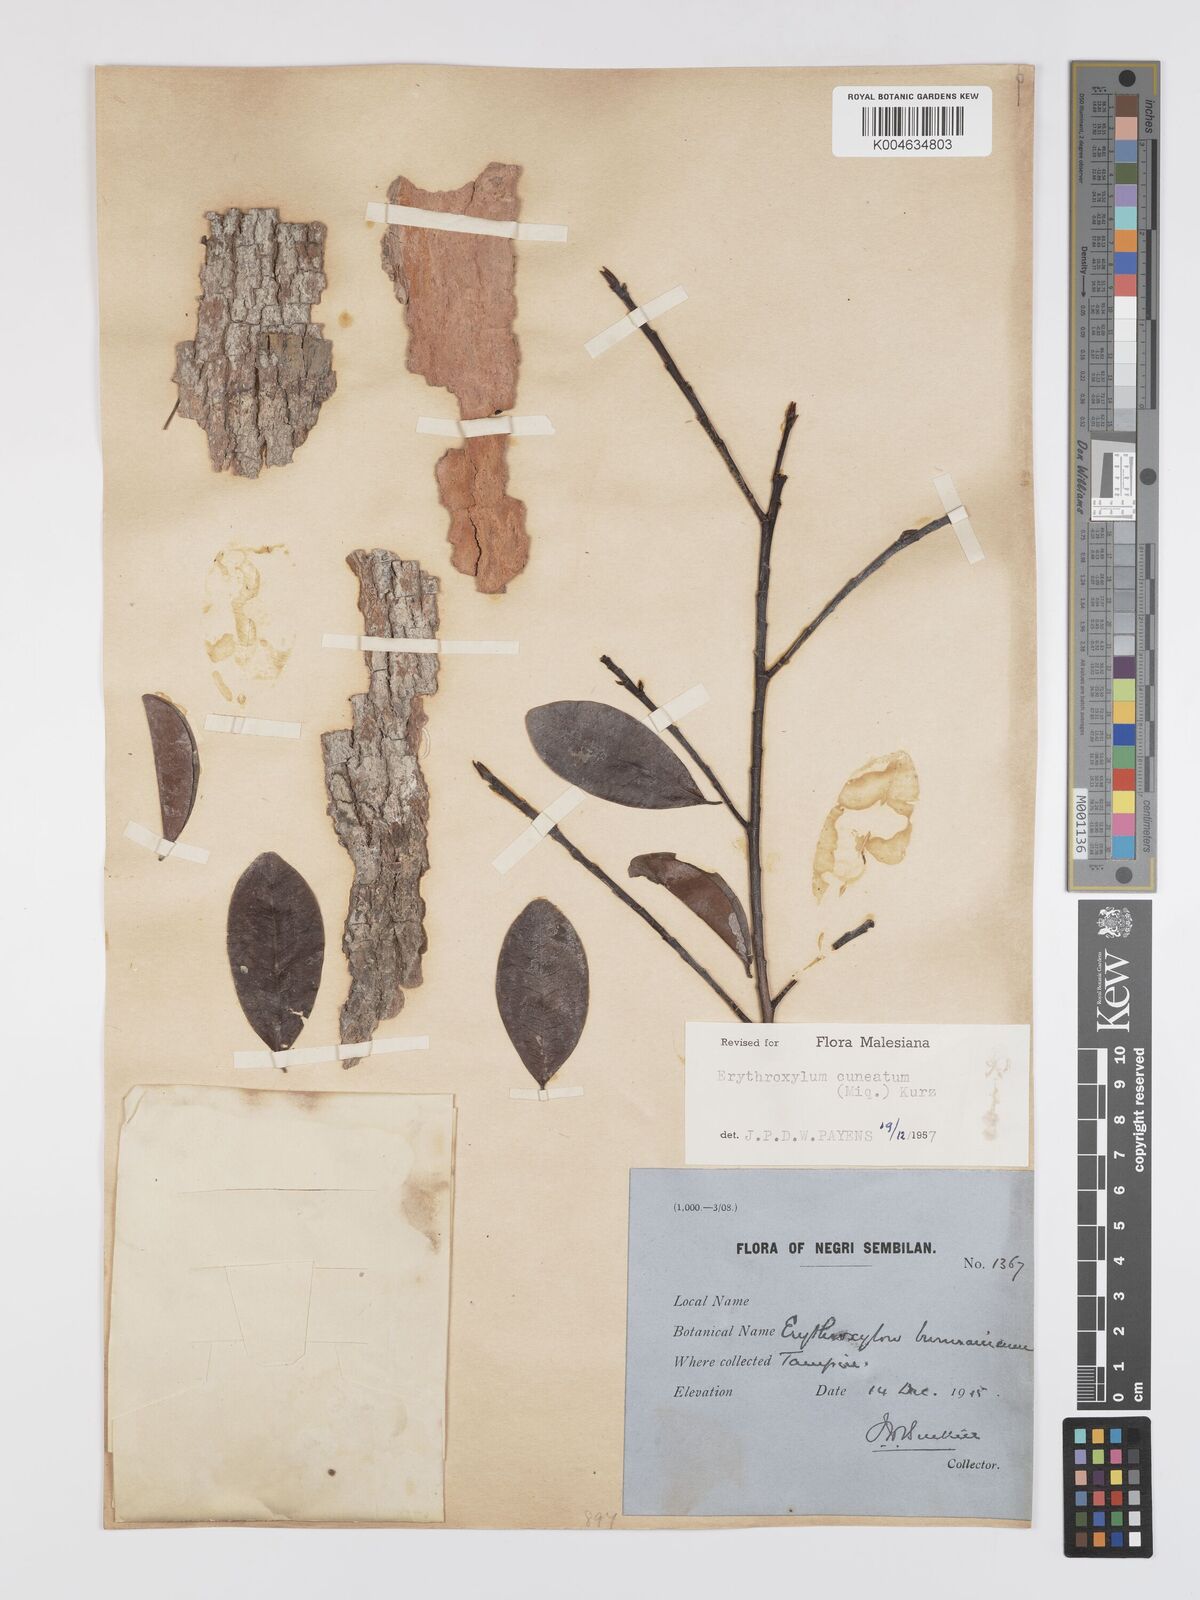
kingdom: Plantae
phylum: Tracheophyta
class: Magnoliopsida
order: Malpighiales
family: Erythroxylaceae
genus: Erythroxylum
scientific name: Erythroxylum cuneatum
